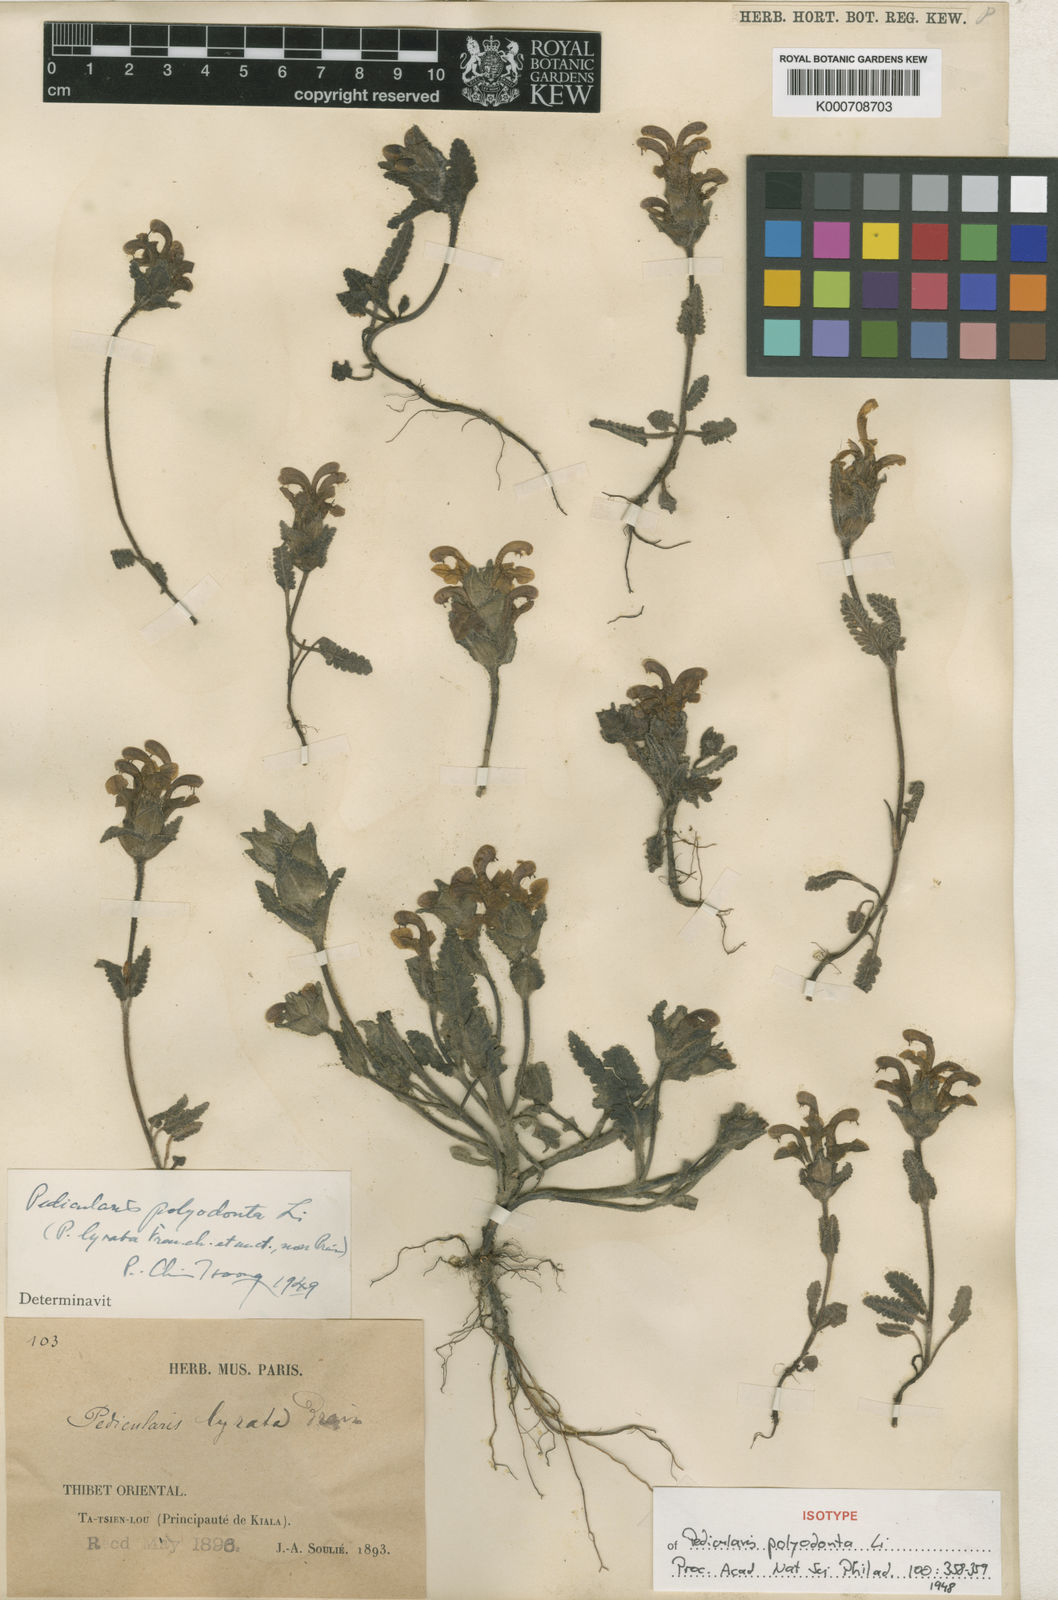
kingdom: Plantae
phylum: Tracheophyta
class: Magnoliopsida
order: Lamiales
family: Orobanchaceae
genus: Pedicularis
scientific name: Pedicularis polyodonta
